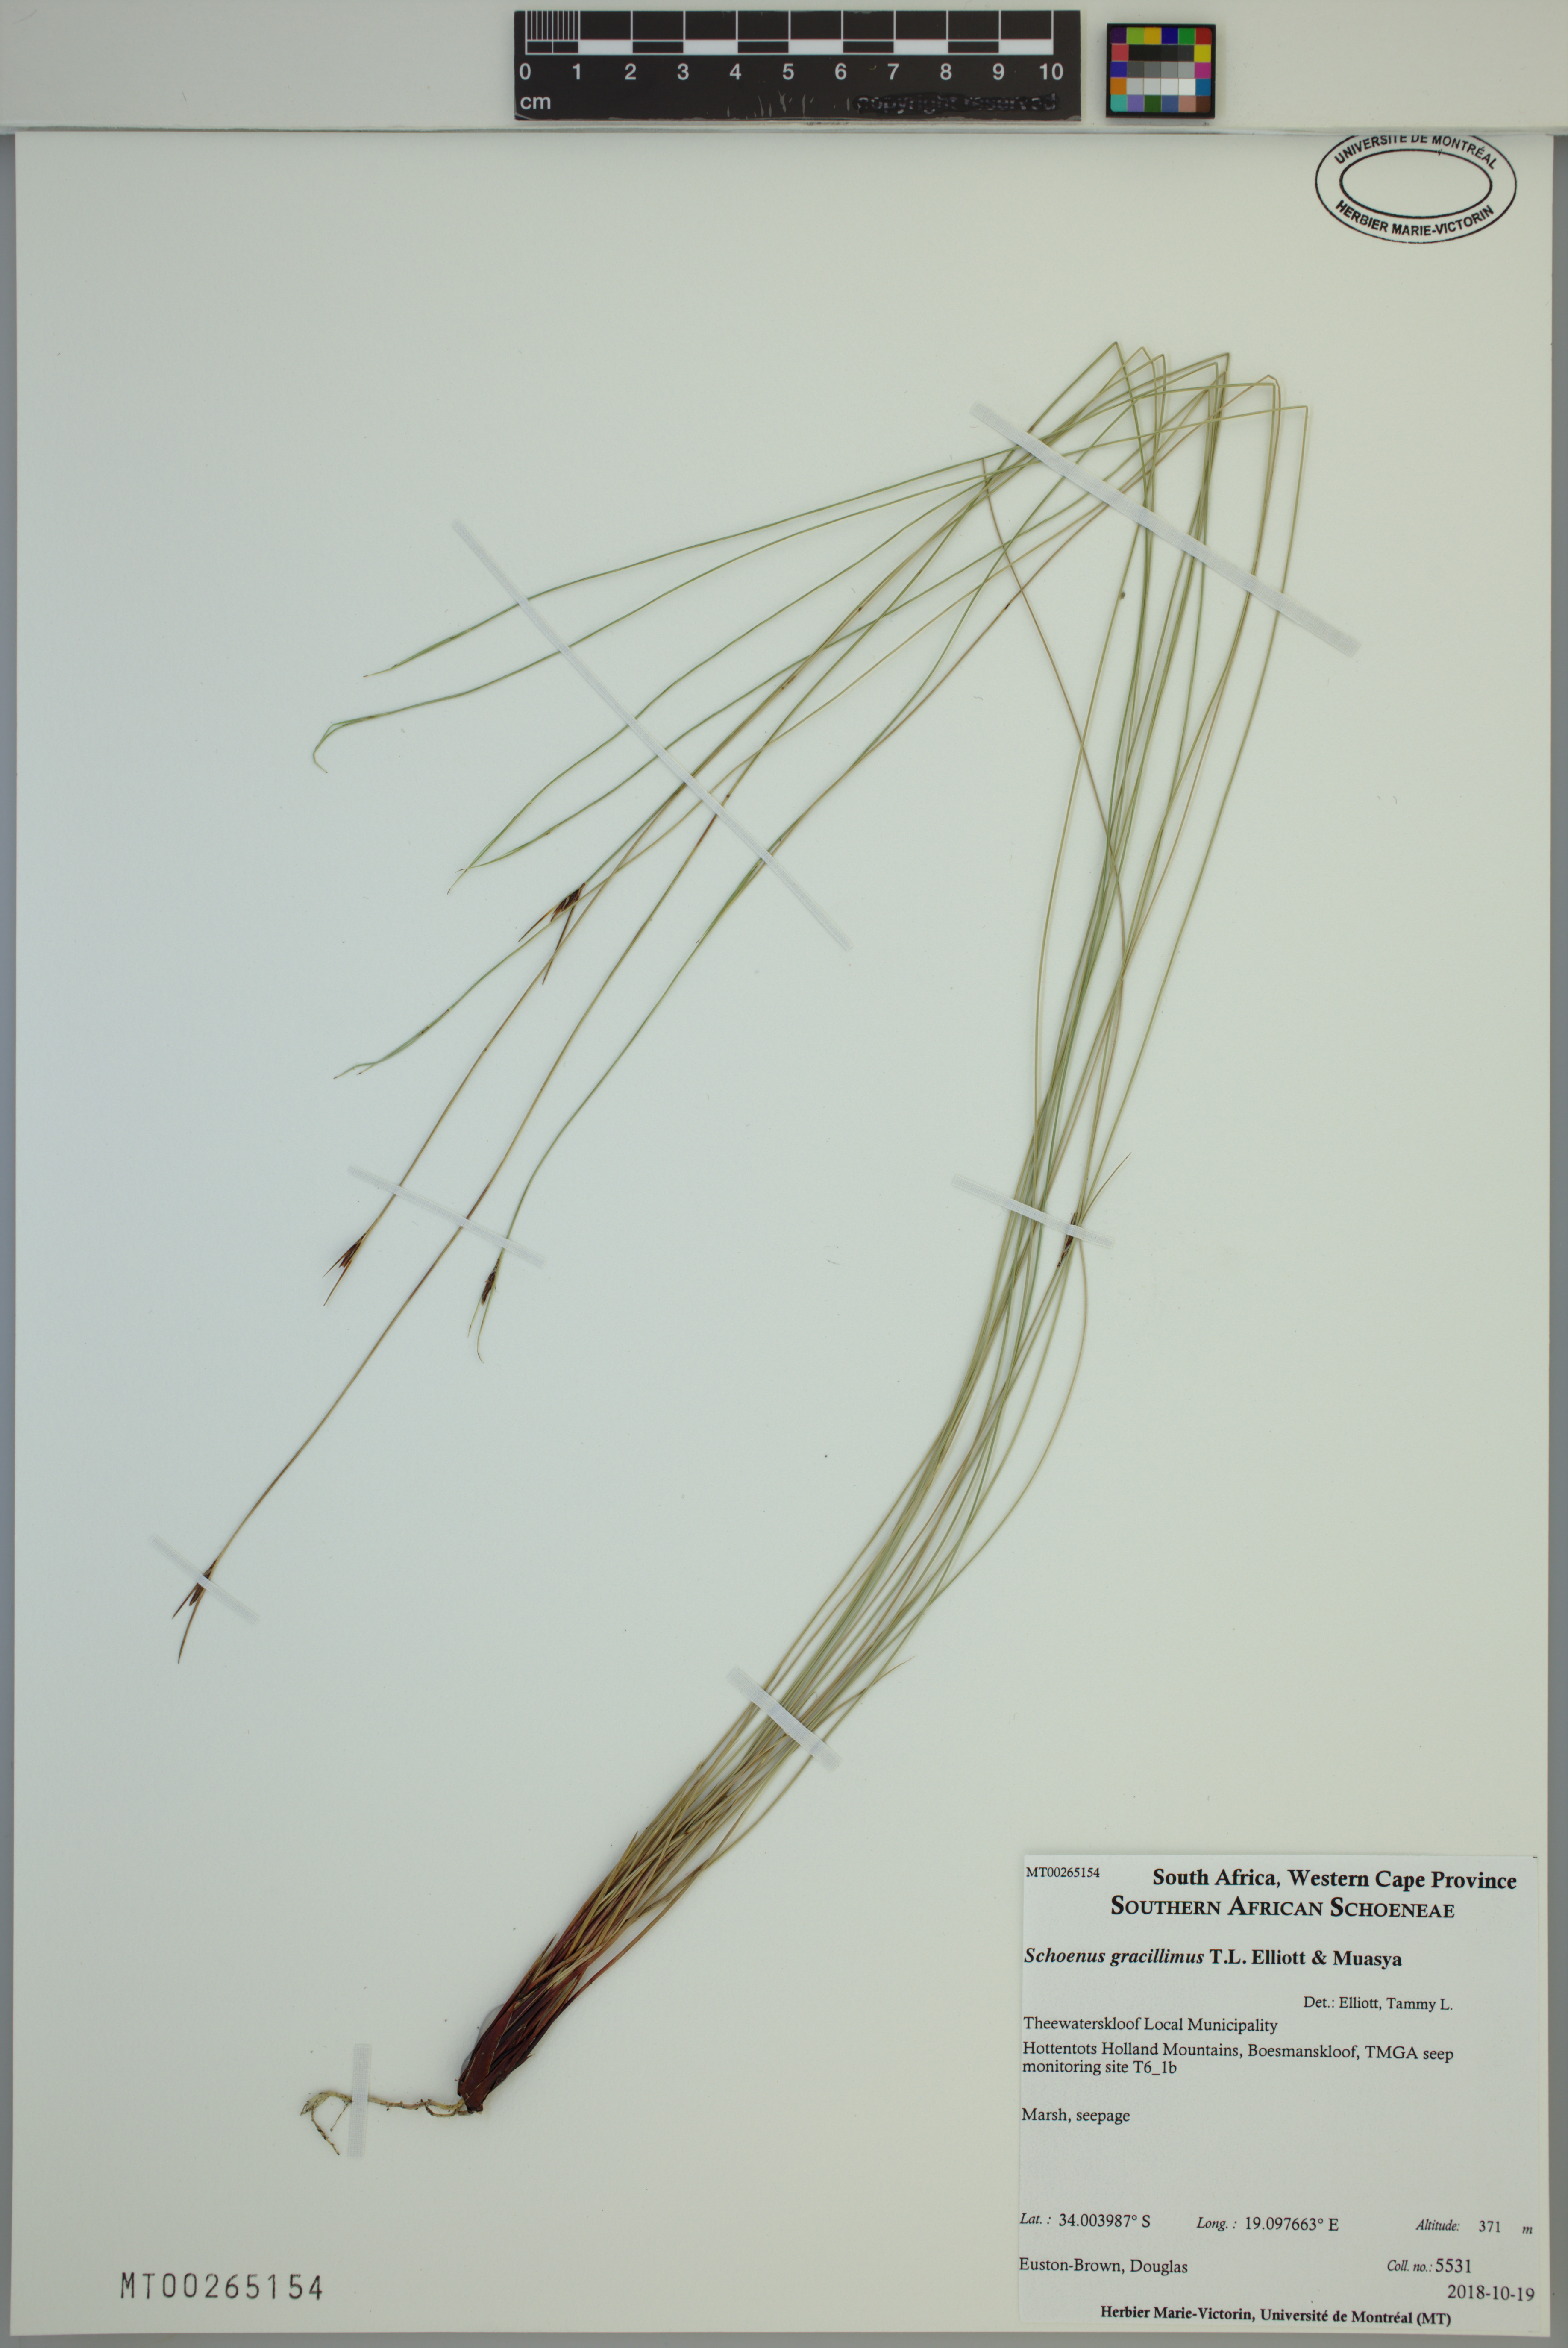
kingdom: Plantae
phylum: Tracheophyta
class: Liliopsida
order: Poales
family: Cyperaceae
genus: Schoenus
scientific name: Schoenus gracillimus
